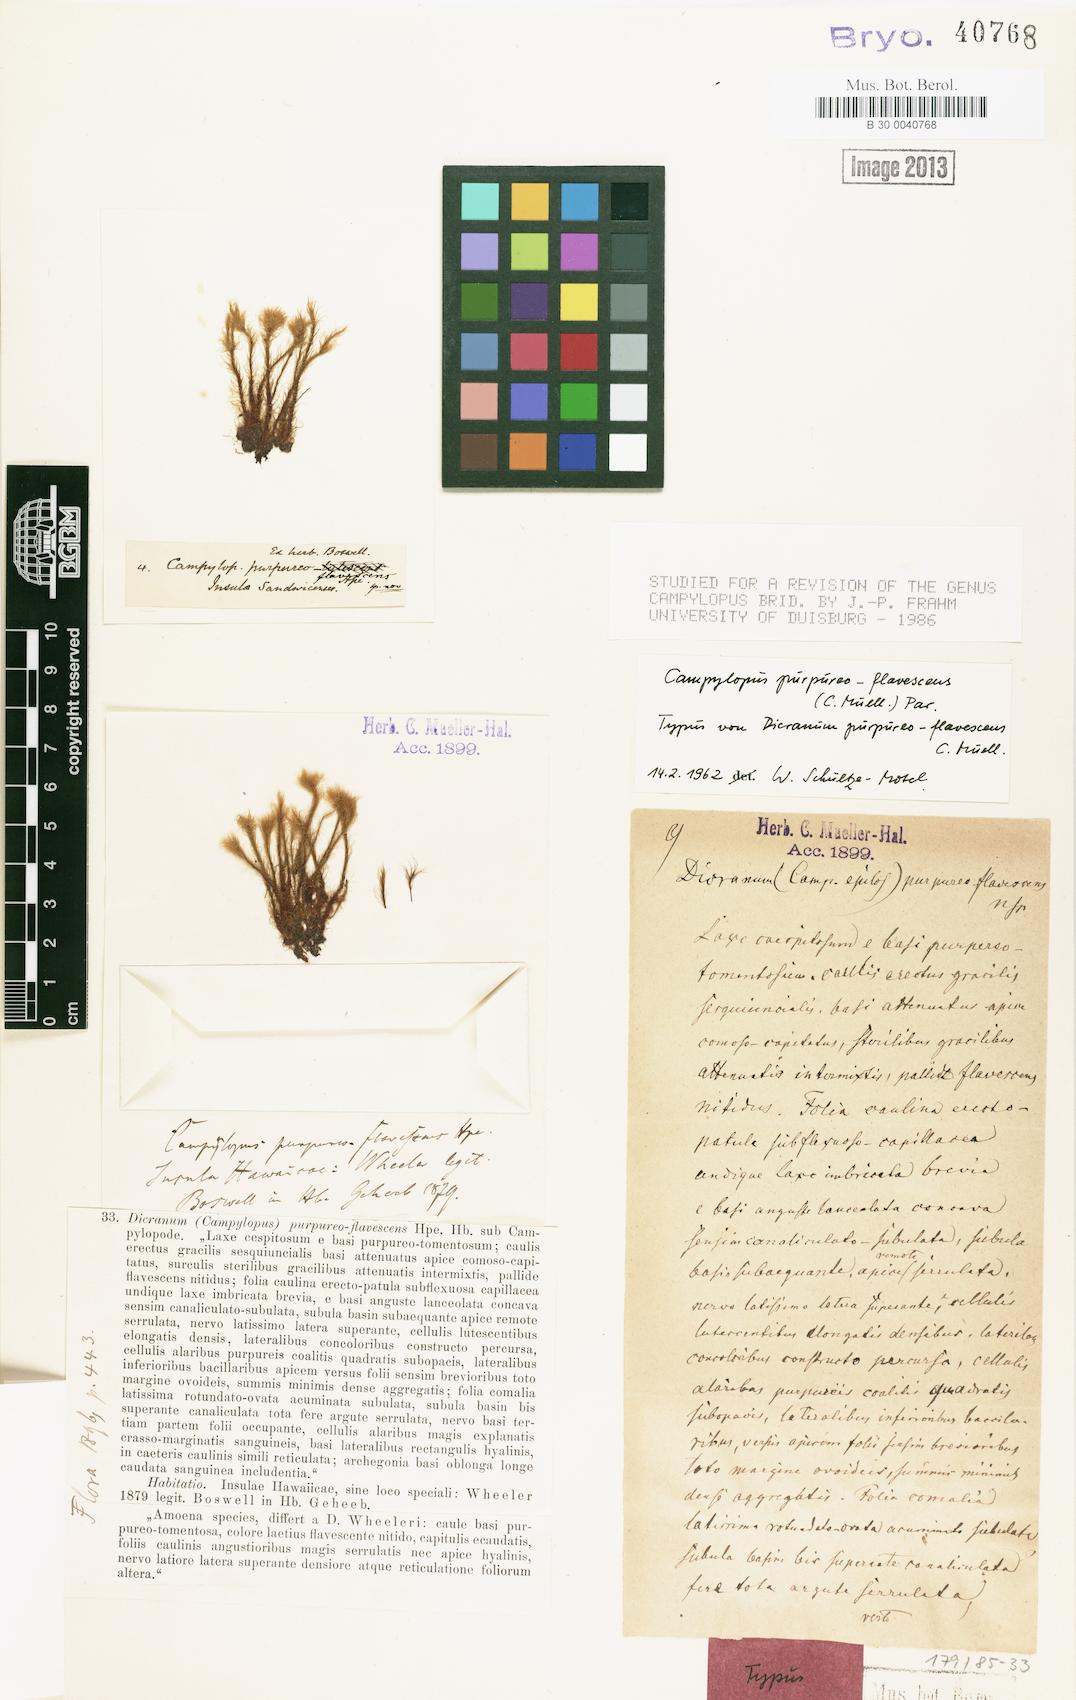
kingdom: Plantae
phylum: Bryophyta
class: Bryopsida
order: Dicranales
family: Leucobryaceae
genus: Campylopus
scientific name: Campylopus hawaiicus
